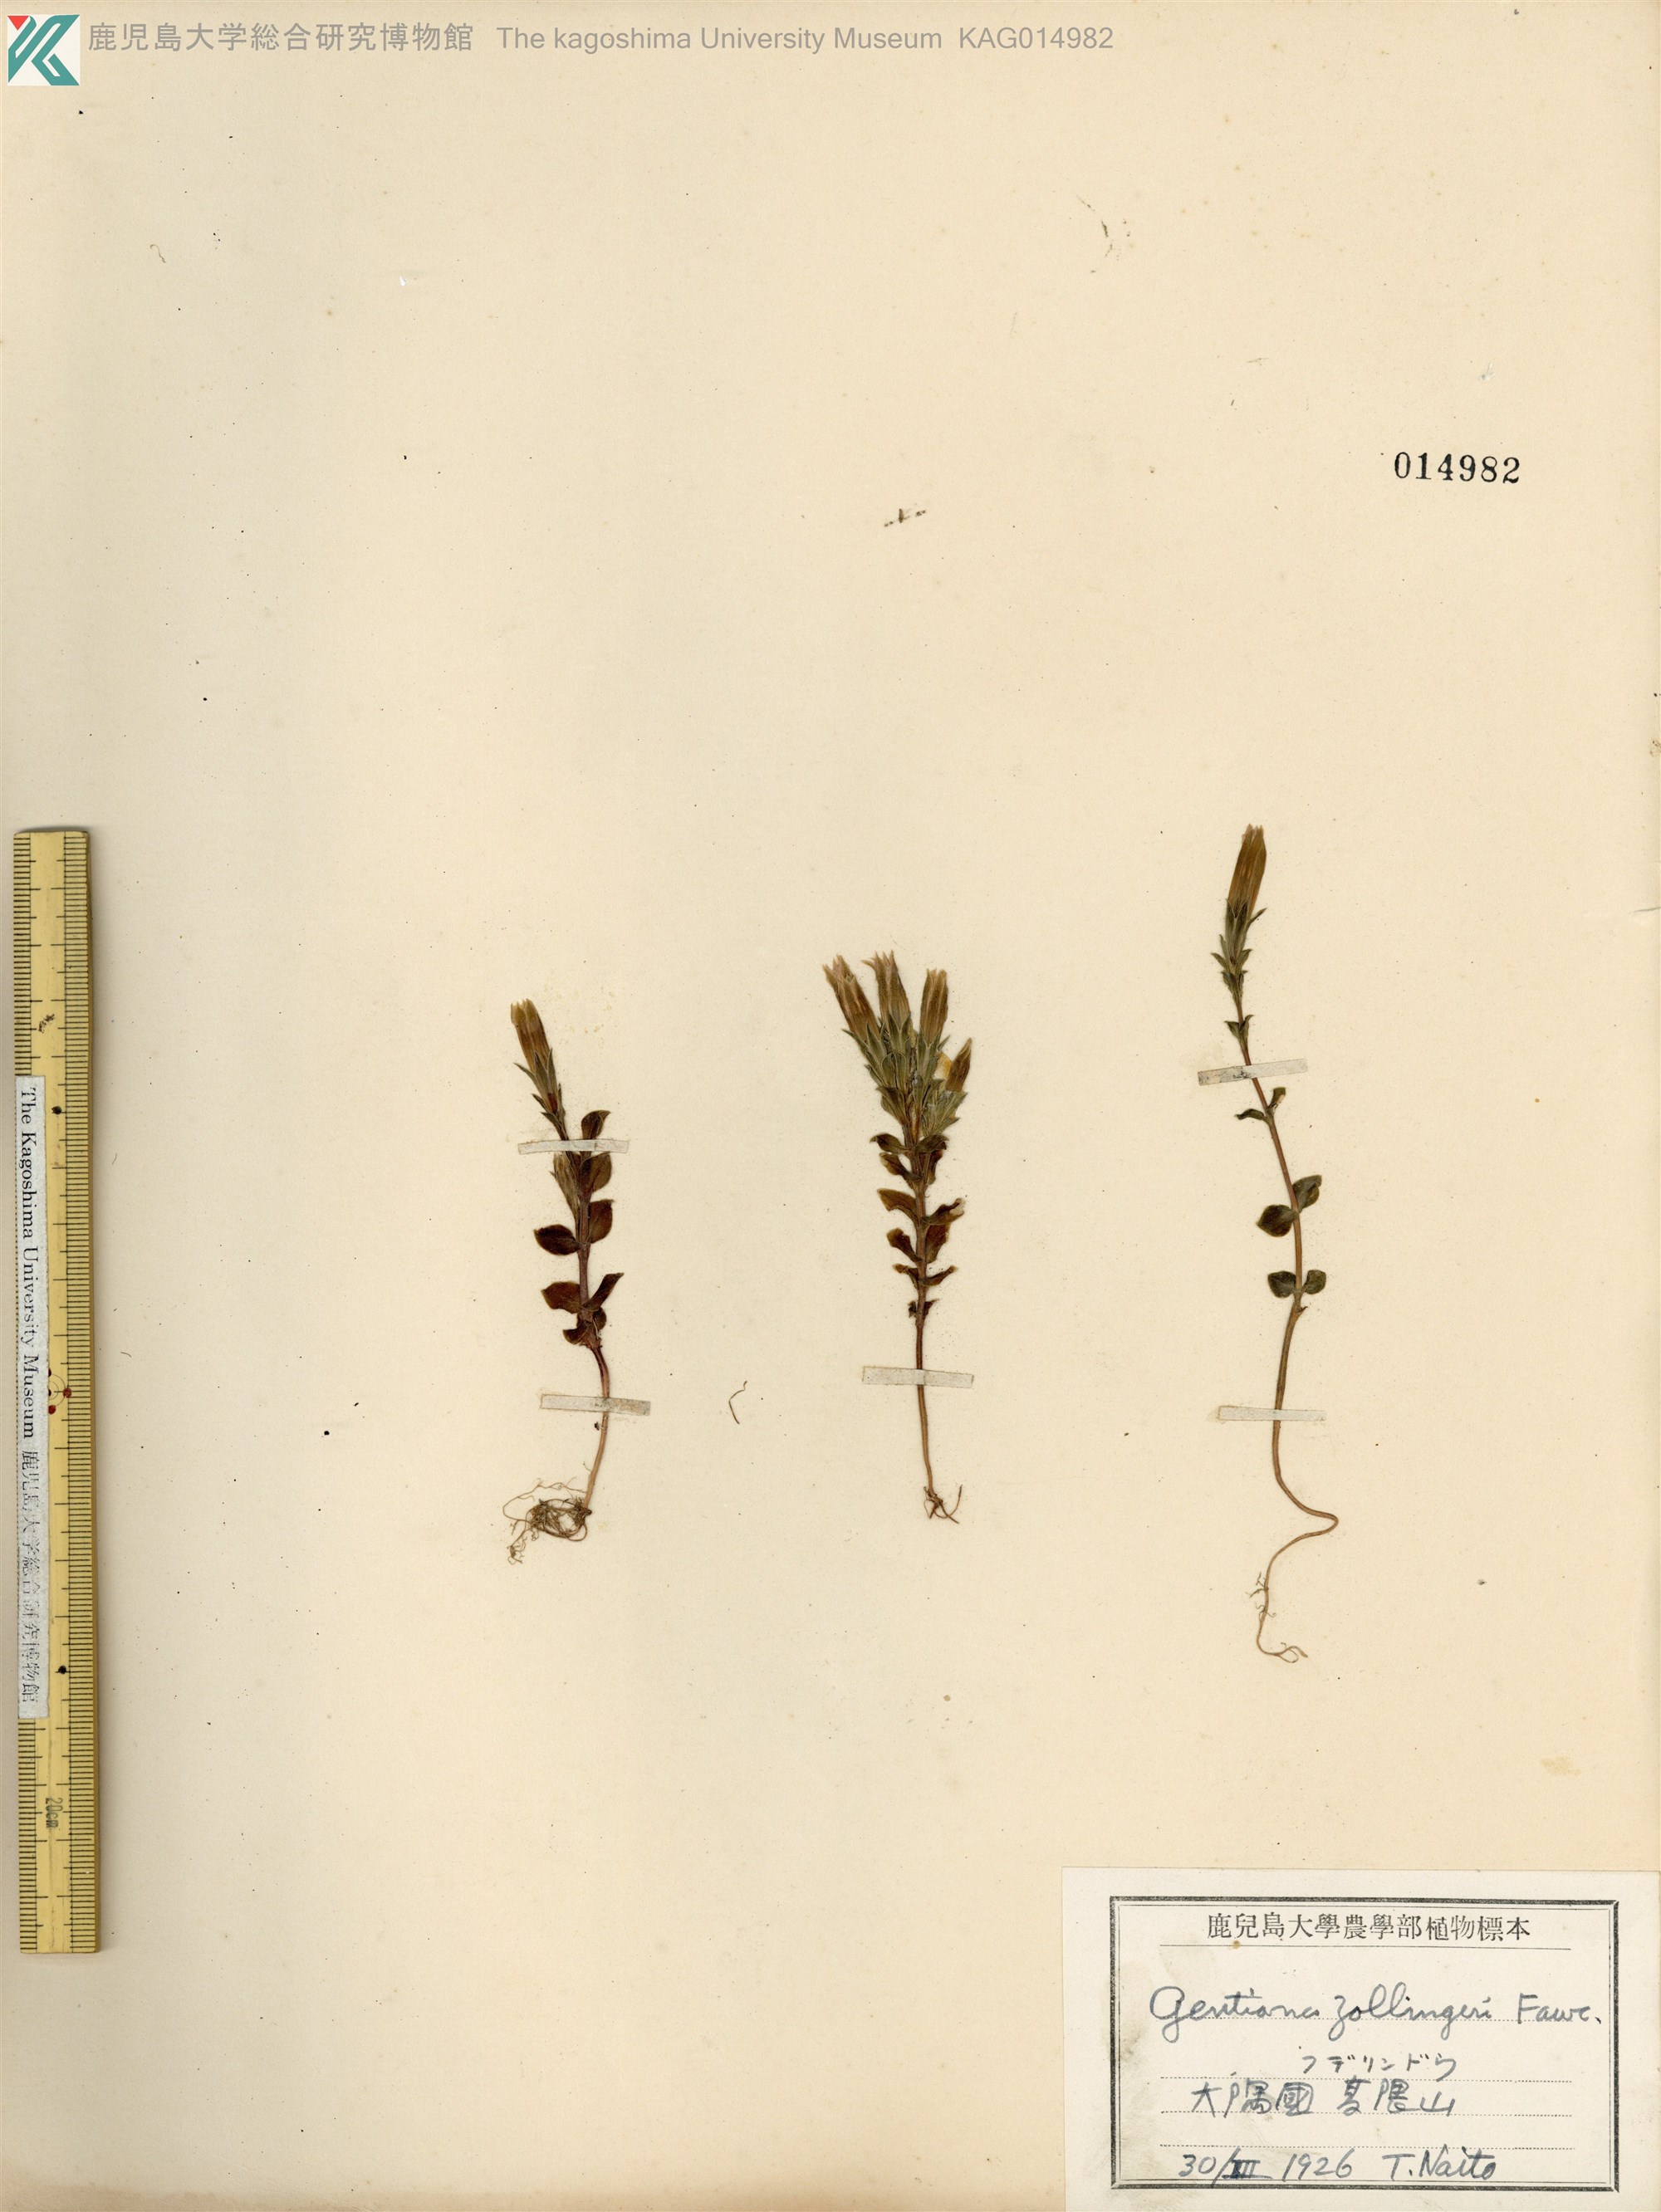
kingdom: Plantae
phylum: Tracheophyta
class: Magnoliopsida
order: Gentianales
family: Gentianaceae
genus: Gentiana
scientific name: Gentiana zollingeri
